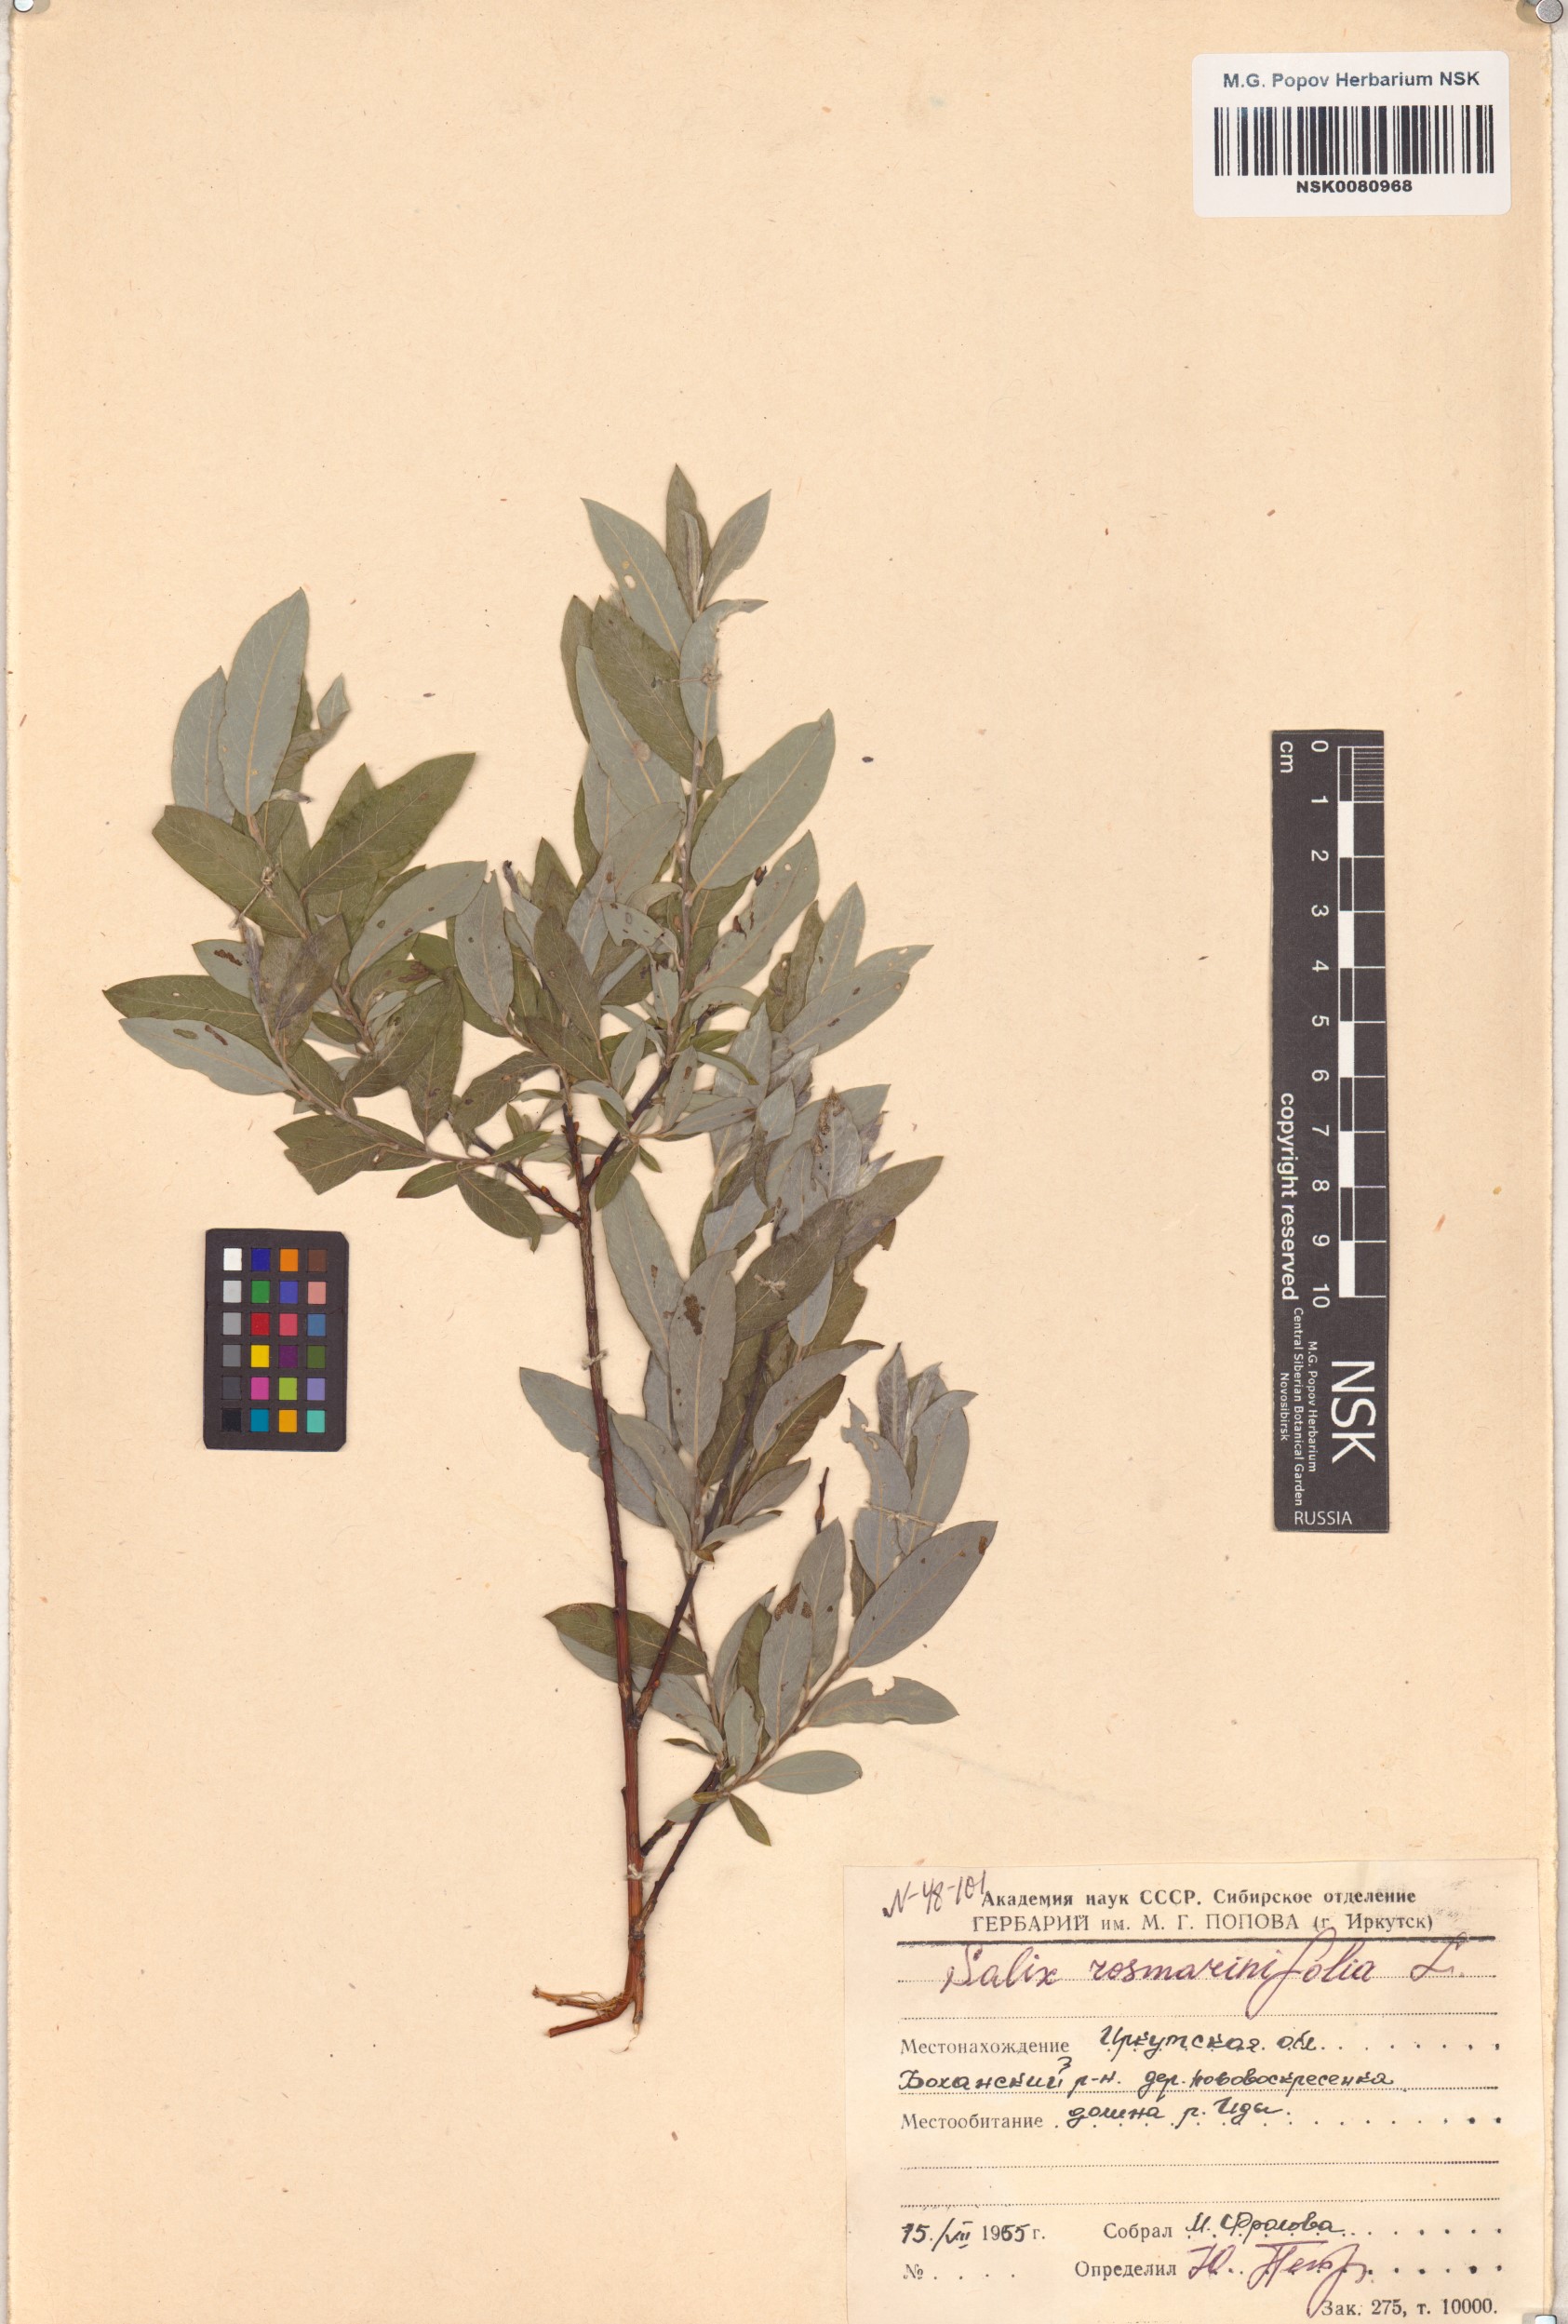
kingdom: Plantae
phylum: Tracheophyta
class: Magnoliopsida
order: Malpighiales
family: Salicaceae
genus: Salix
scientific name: Salix rosmarinifolia
